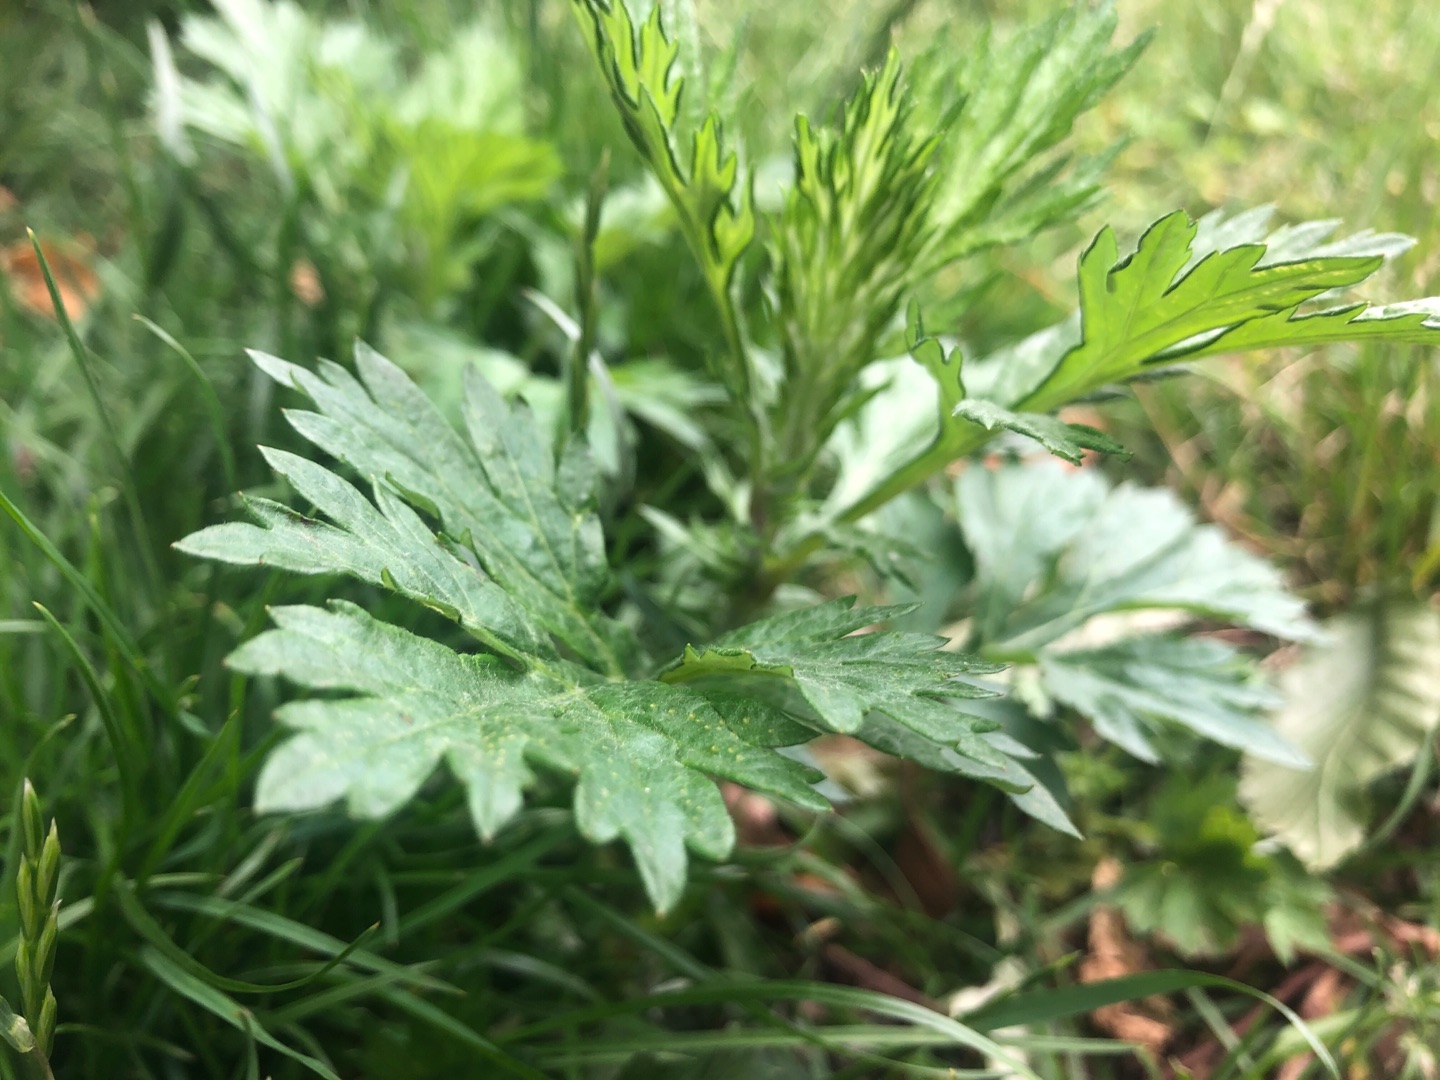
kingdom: Plantae
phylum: Tracheophyta
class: Magnoliopsida
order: Asterales
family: Asteraceae
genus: Artemisia
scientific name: Artemisia vulgaris
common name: Grå-bynke
